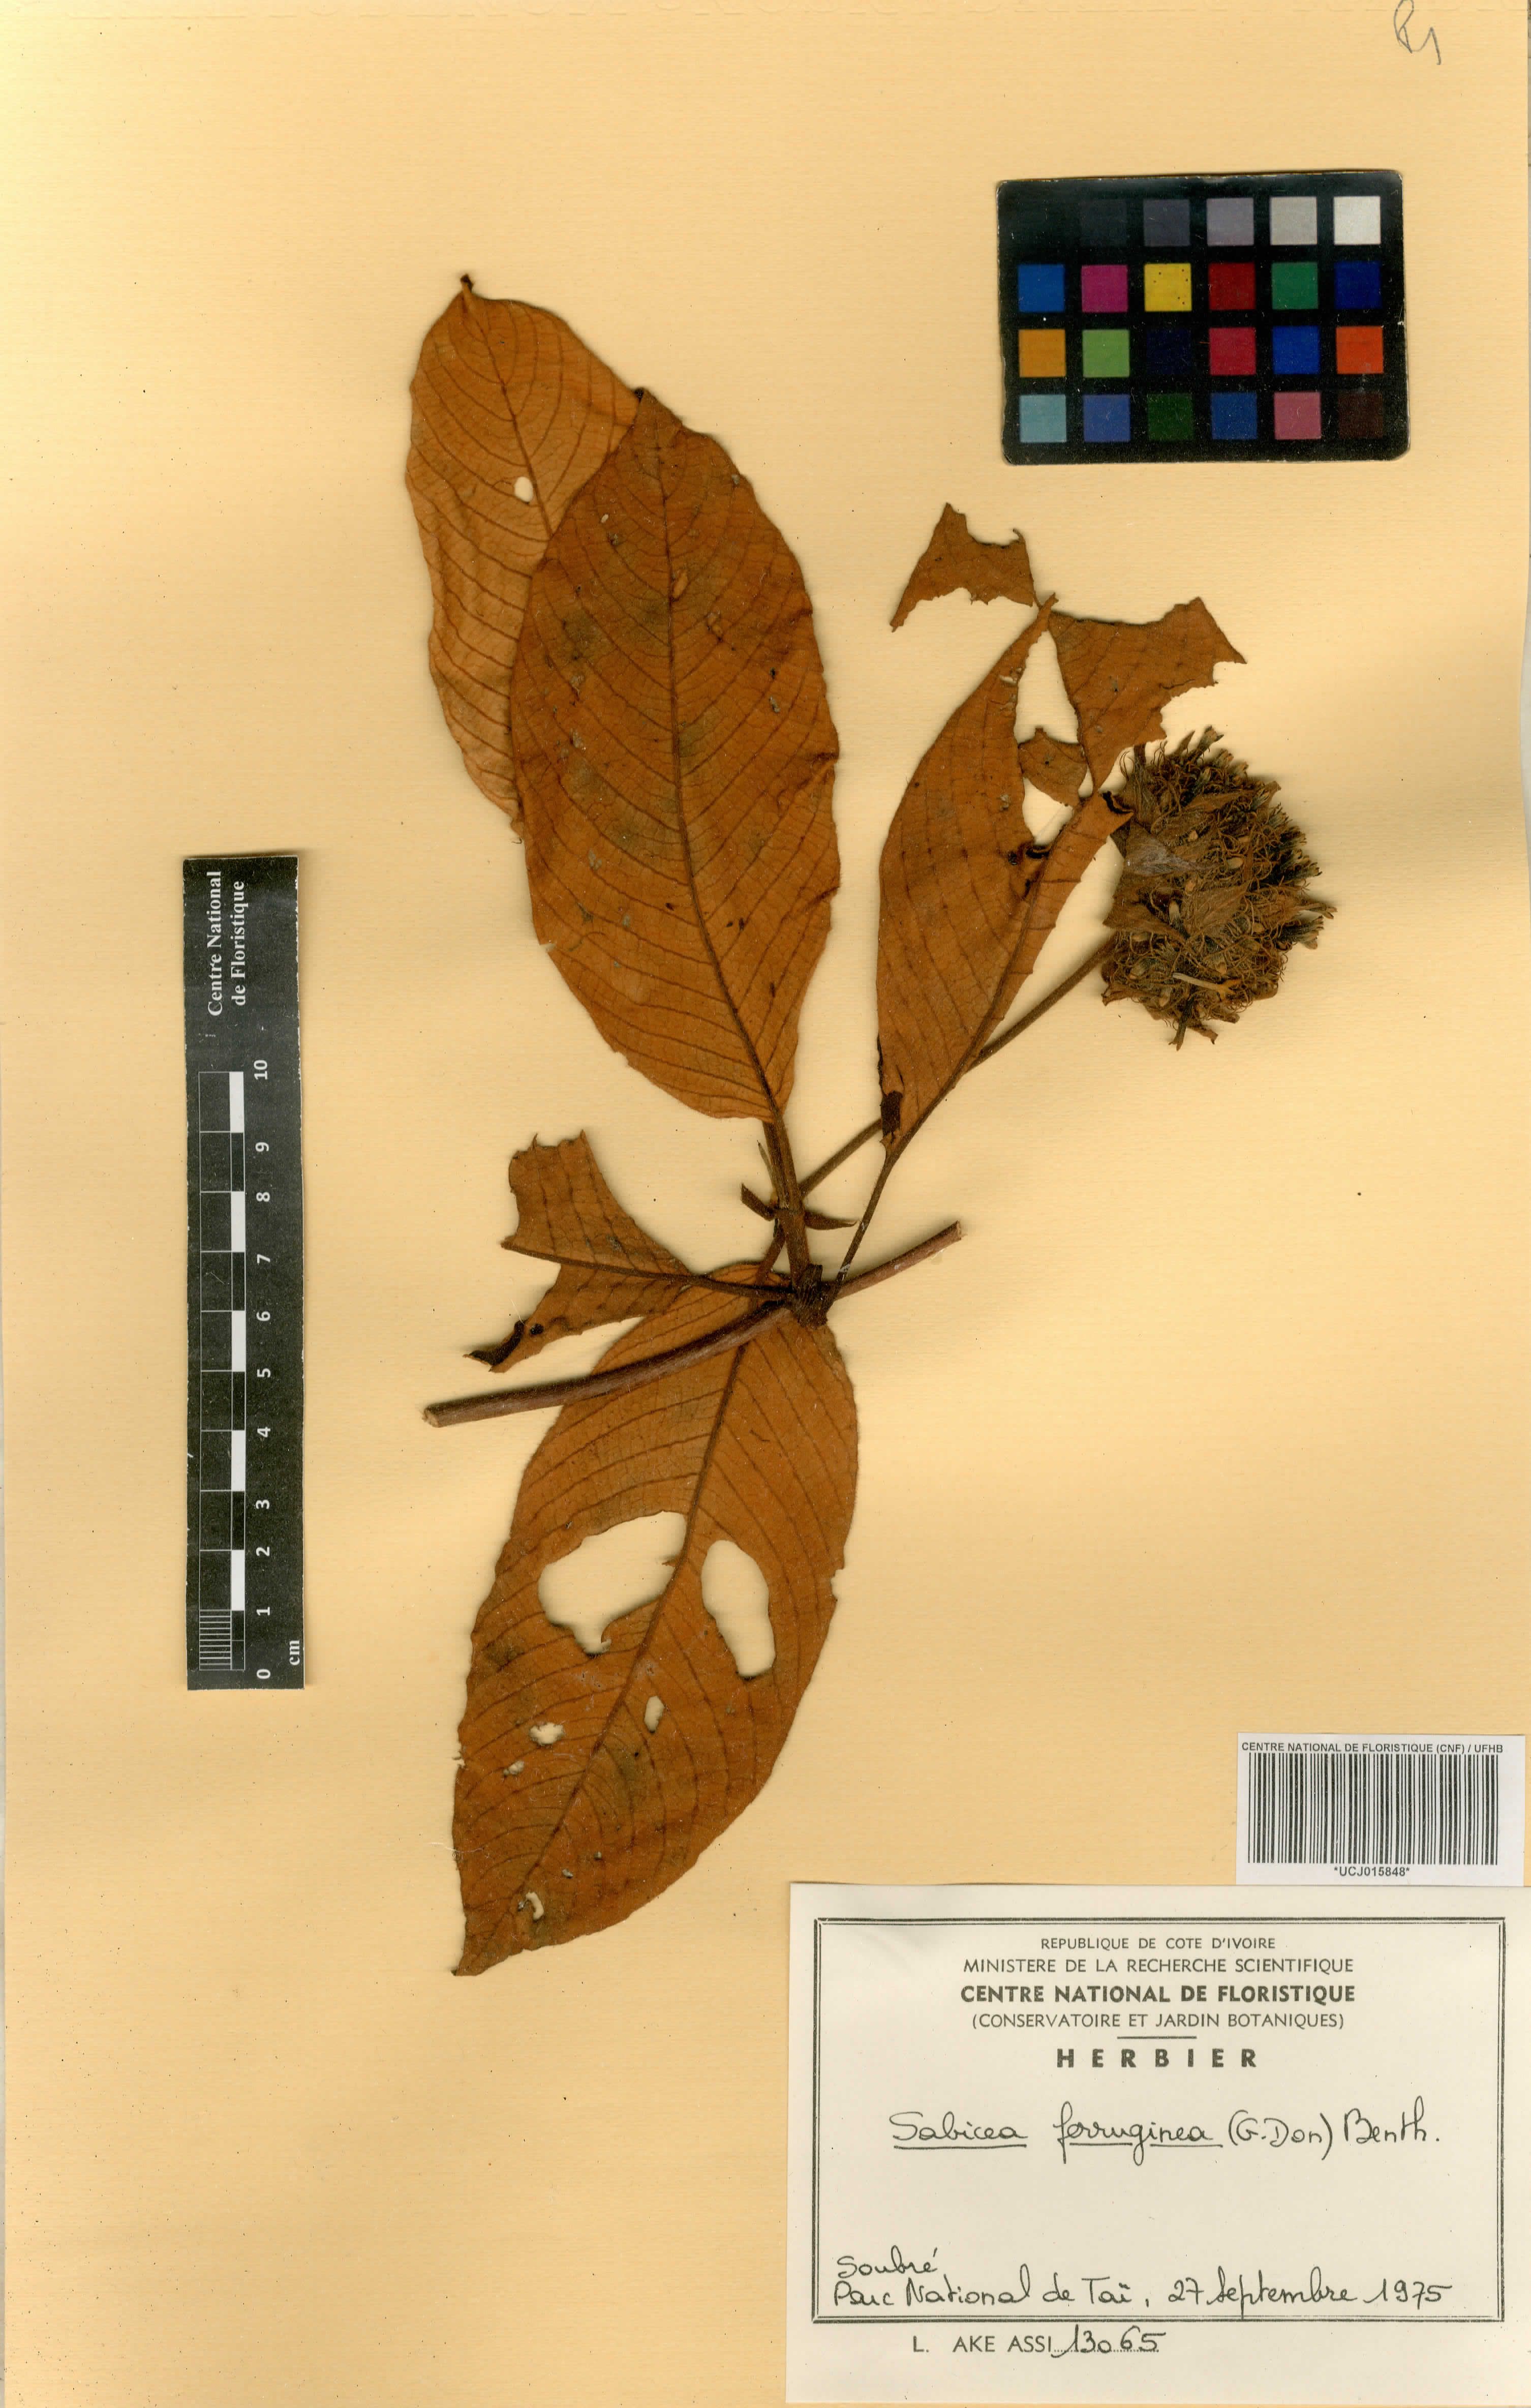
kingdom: Plantae
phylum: Tracheophyta
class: Magnoliopsida
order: Gentianales
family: Rubiaceae
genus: Sabicea
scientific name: Sabicea ferruginea
